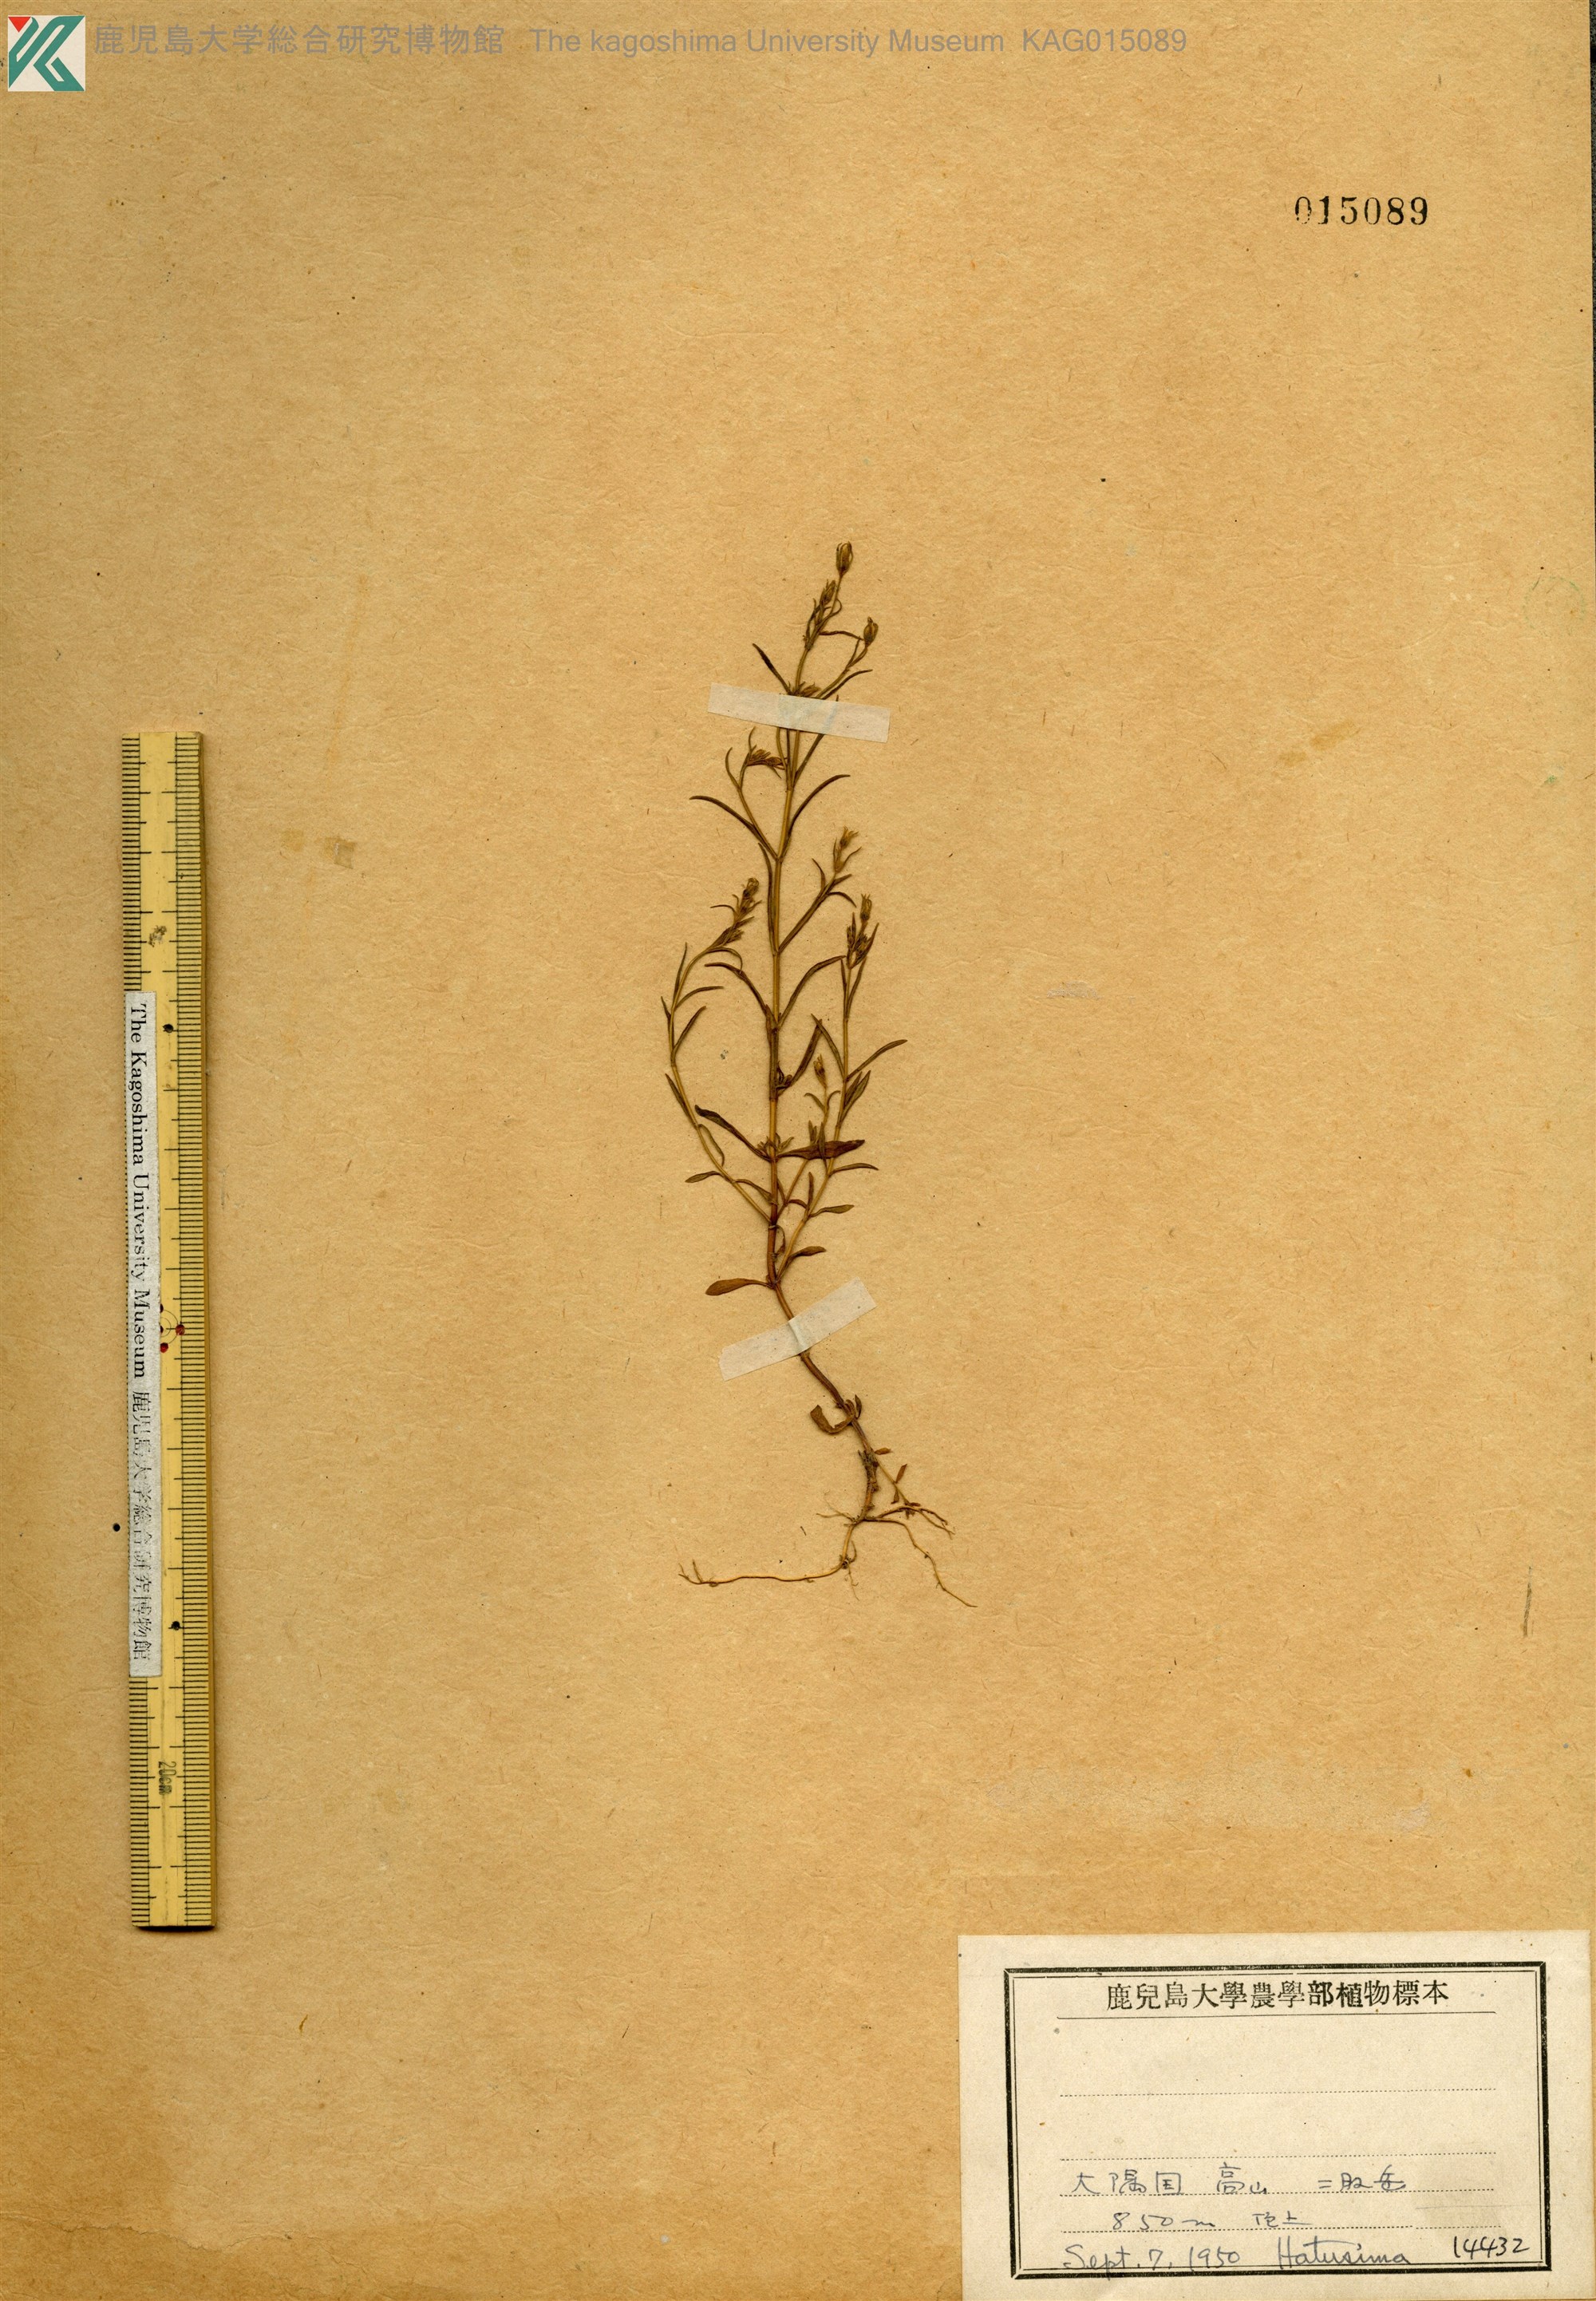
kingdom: Plantae
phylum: Tracheophyta
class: Magnoliopsida
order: Gentianales
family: Gentianaceae
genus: Swertia
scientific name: Swertia japonica
